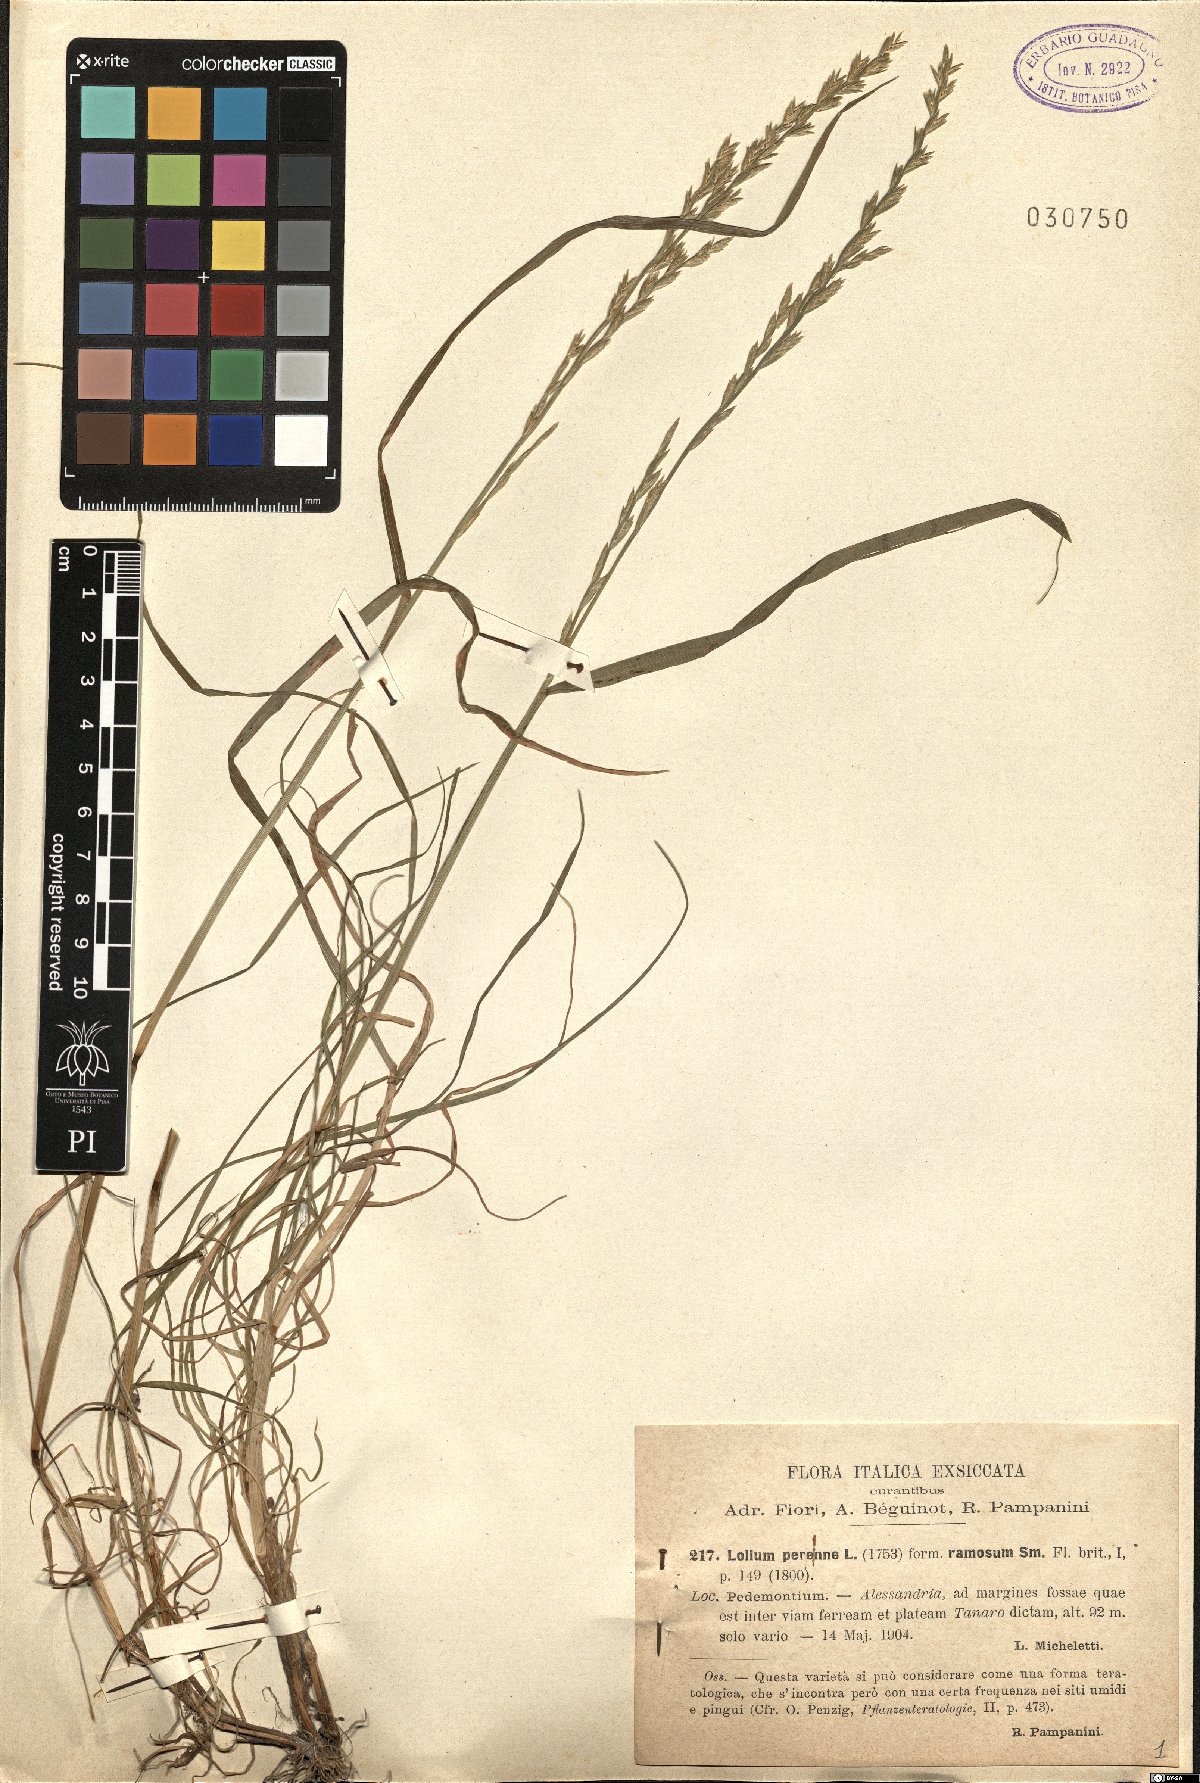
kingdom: Plantae
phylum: Tracheophyta
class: Liliopsida
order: Poales
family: Poaceae
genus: Lolium
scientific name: Lolium perenne
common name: Perennial ryegrass
